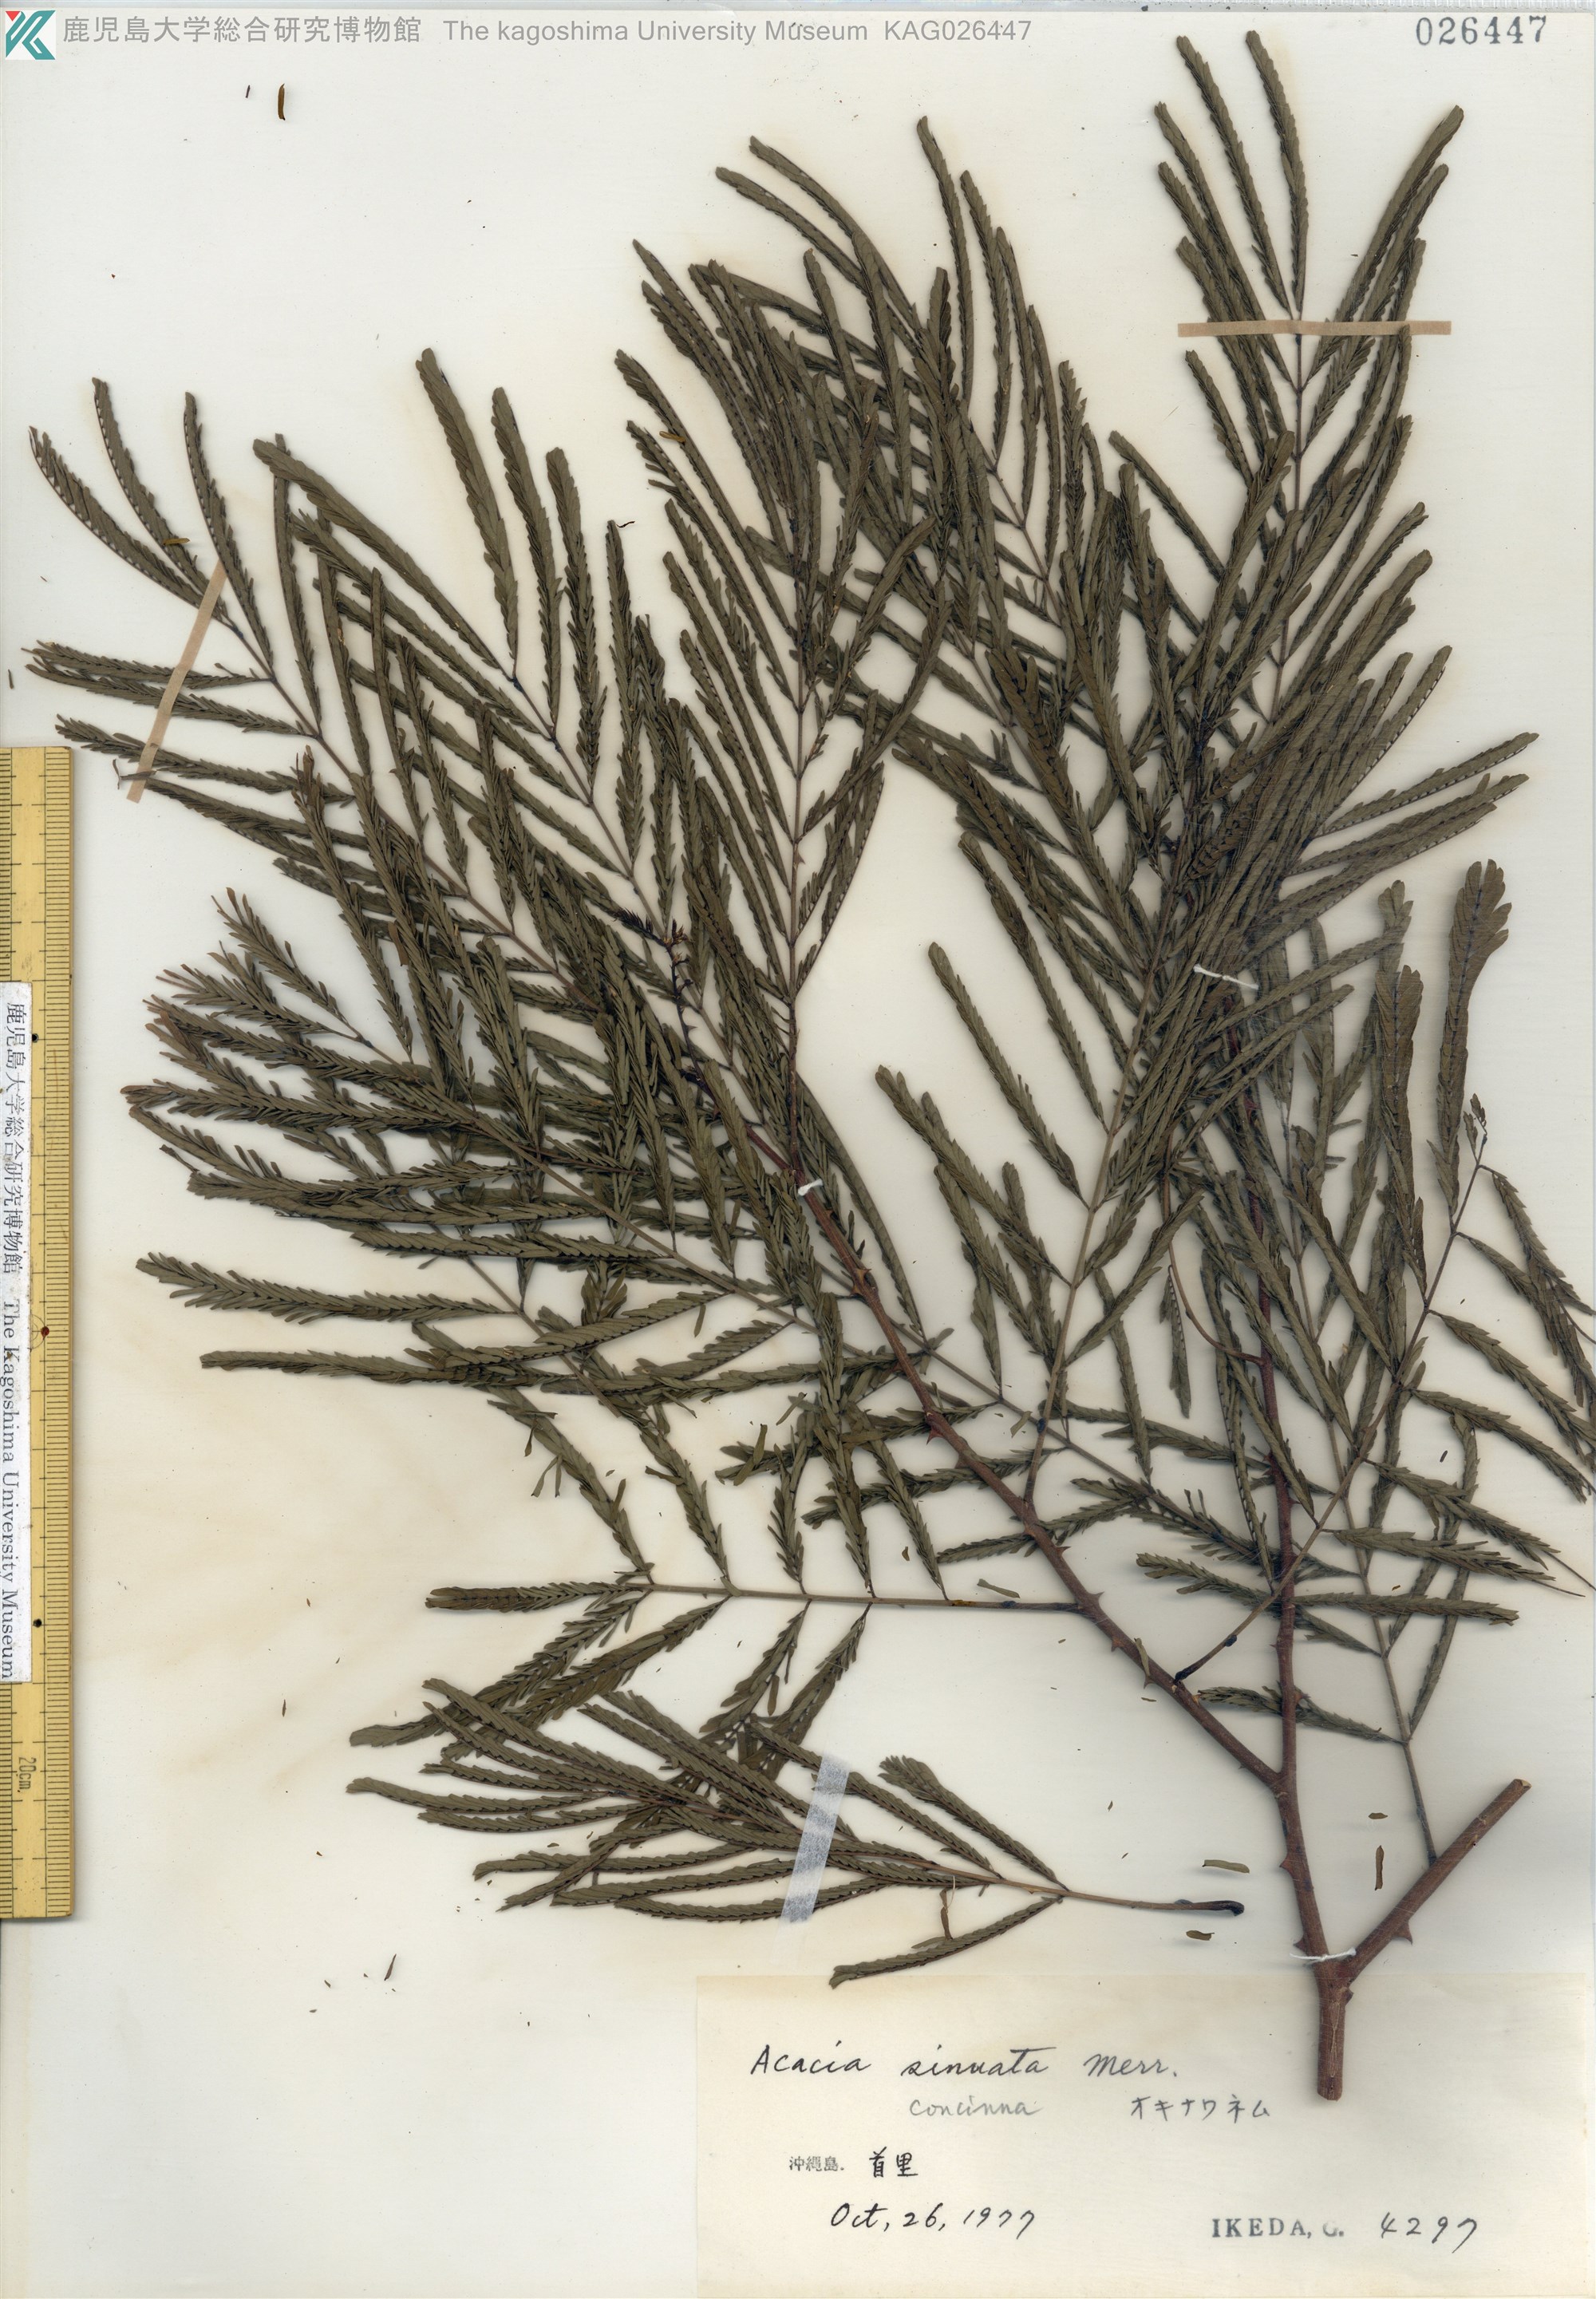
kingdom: Plantae
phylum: Tracheophyta
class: Magnoliopsida
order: Fabales
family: Fabaceae
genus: Senegalia
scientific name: Senegalia rugata
